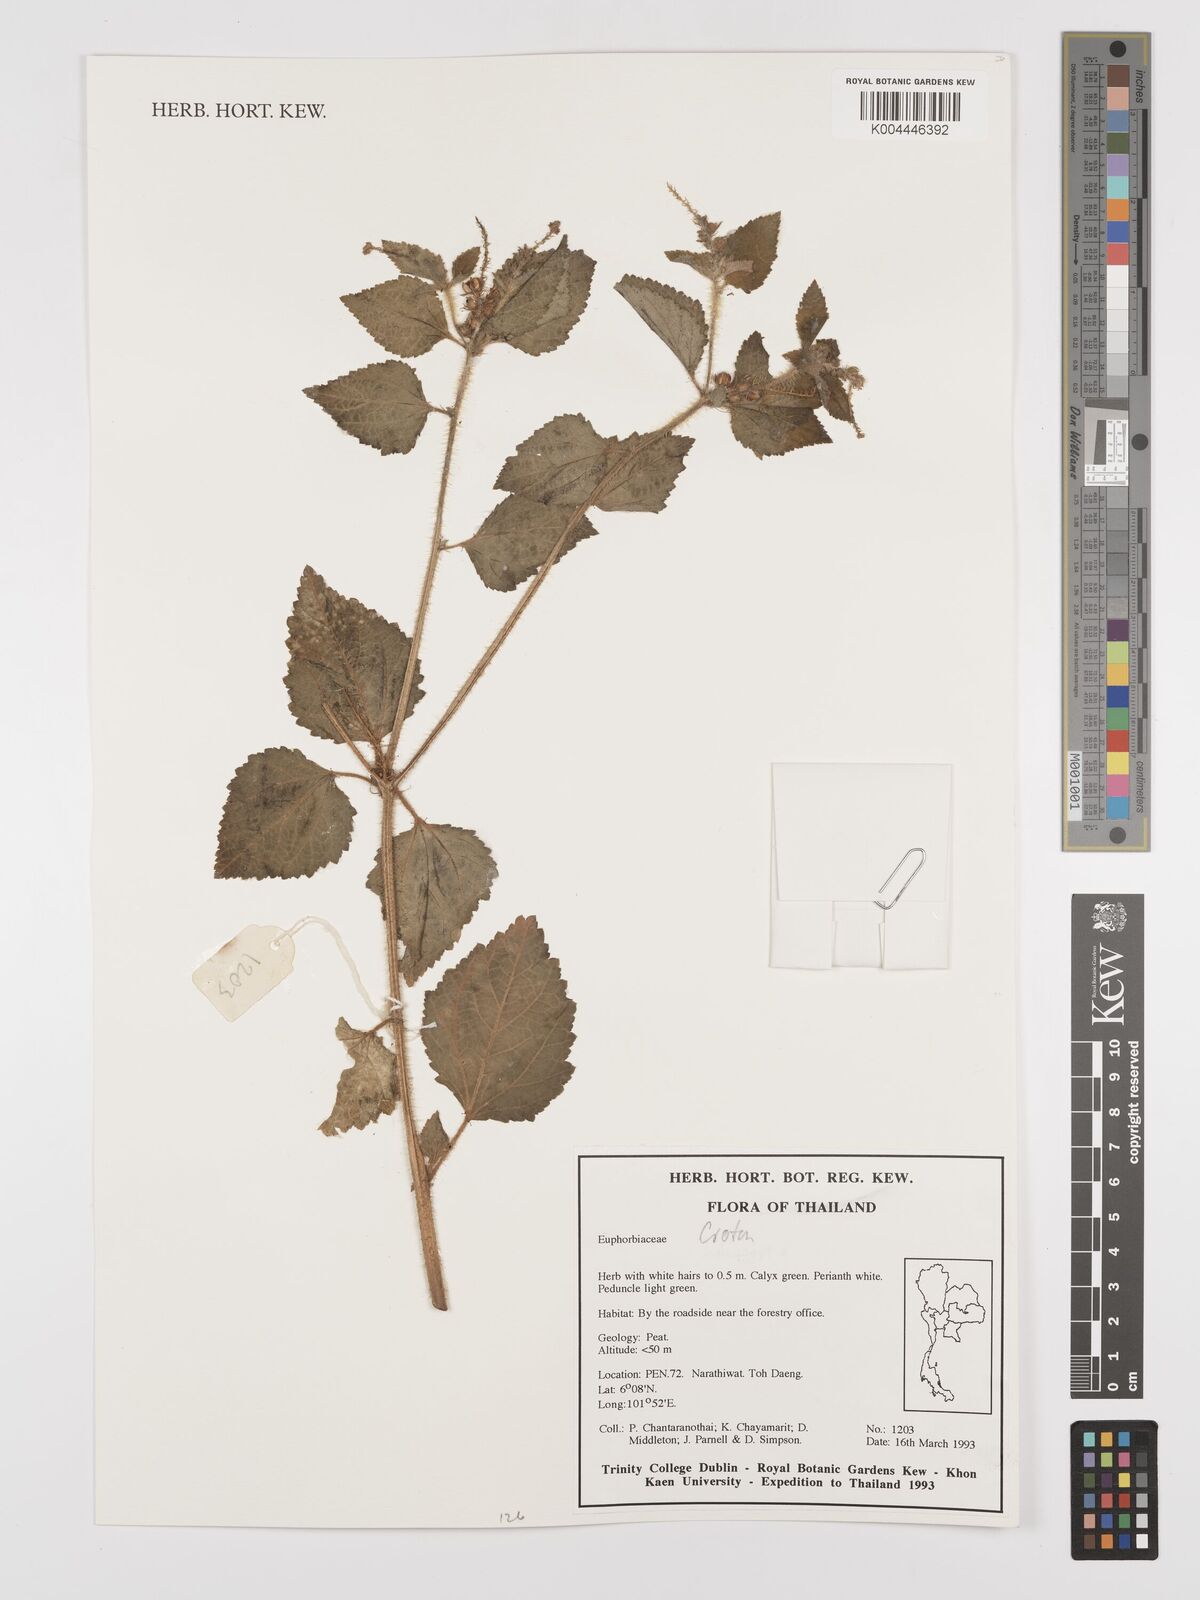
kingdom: Plantae
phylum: Tracheophyta
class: Magnoliopsida
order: Malpighiales
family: Euphorbiaceae
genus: Croton
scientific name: Croton
